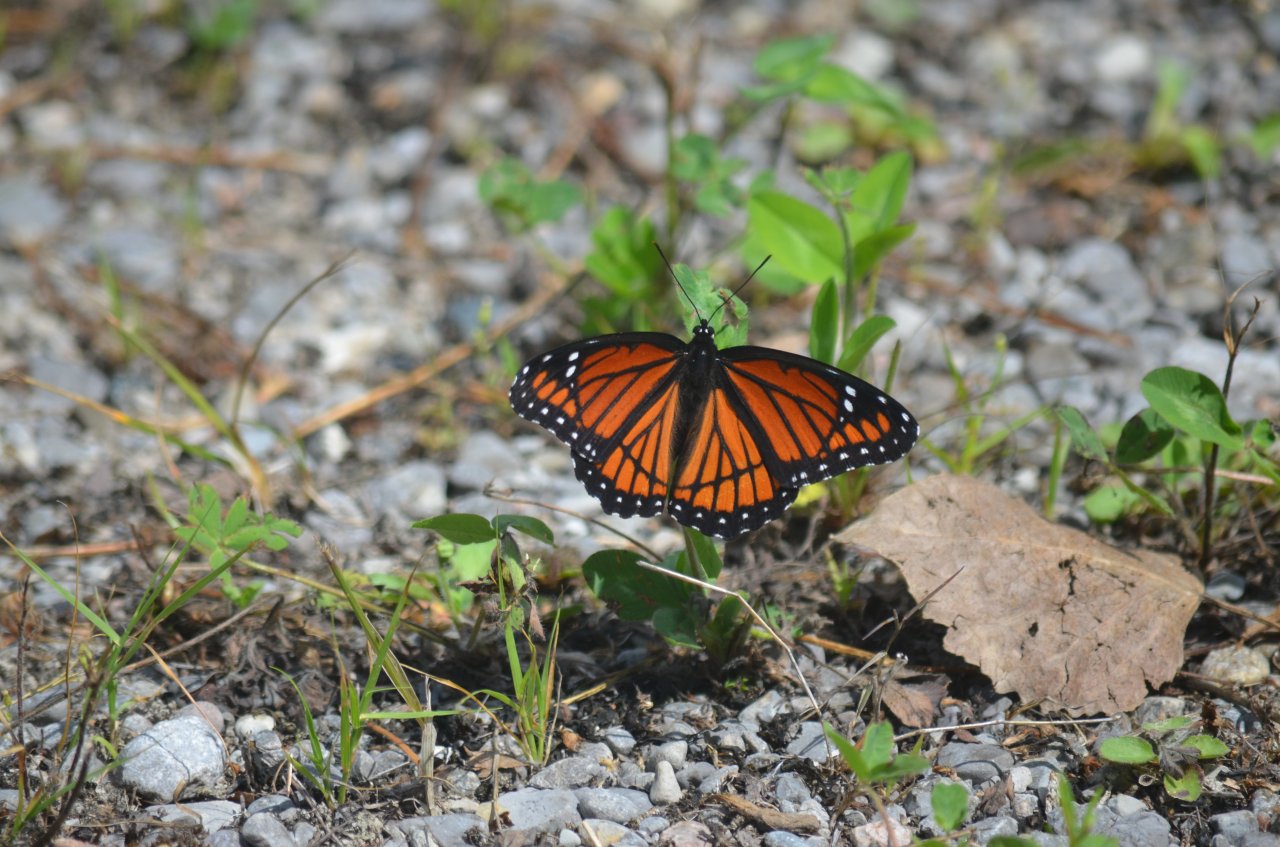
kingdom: Animalia
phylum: Arthropoda
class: Insecta
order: Lepidoptera
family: Nymphalidae
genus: Limenitis
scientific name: Limenitis archippus
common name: Viceroy
